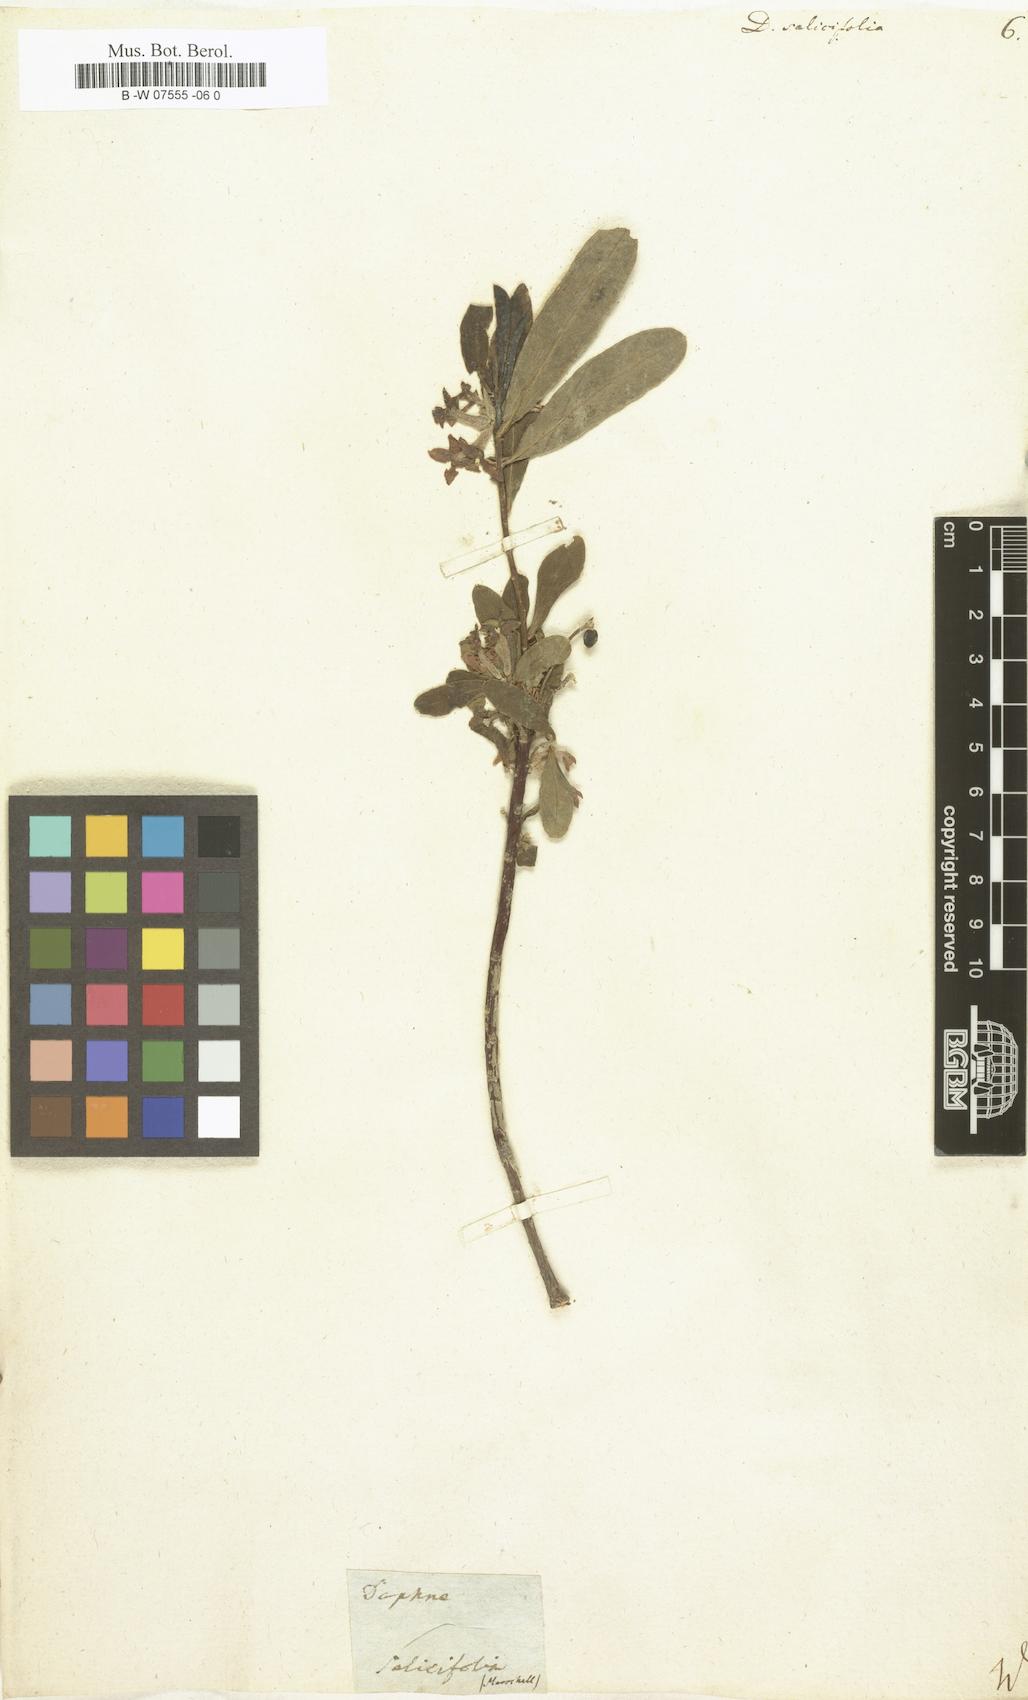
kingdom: Plantae
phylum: Tracheophyta
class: Magnoliopsida
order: Malvales
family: Thymelaeaceae
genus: Daphne
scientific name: Daphne caucasica
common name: Caucasian daphne
